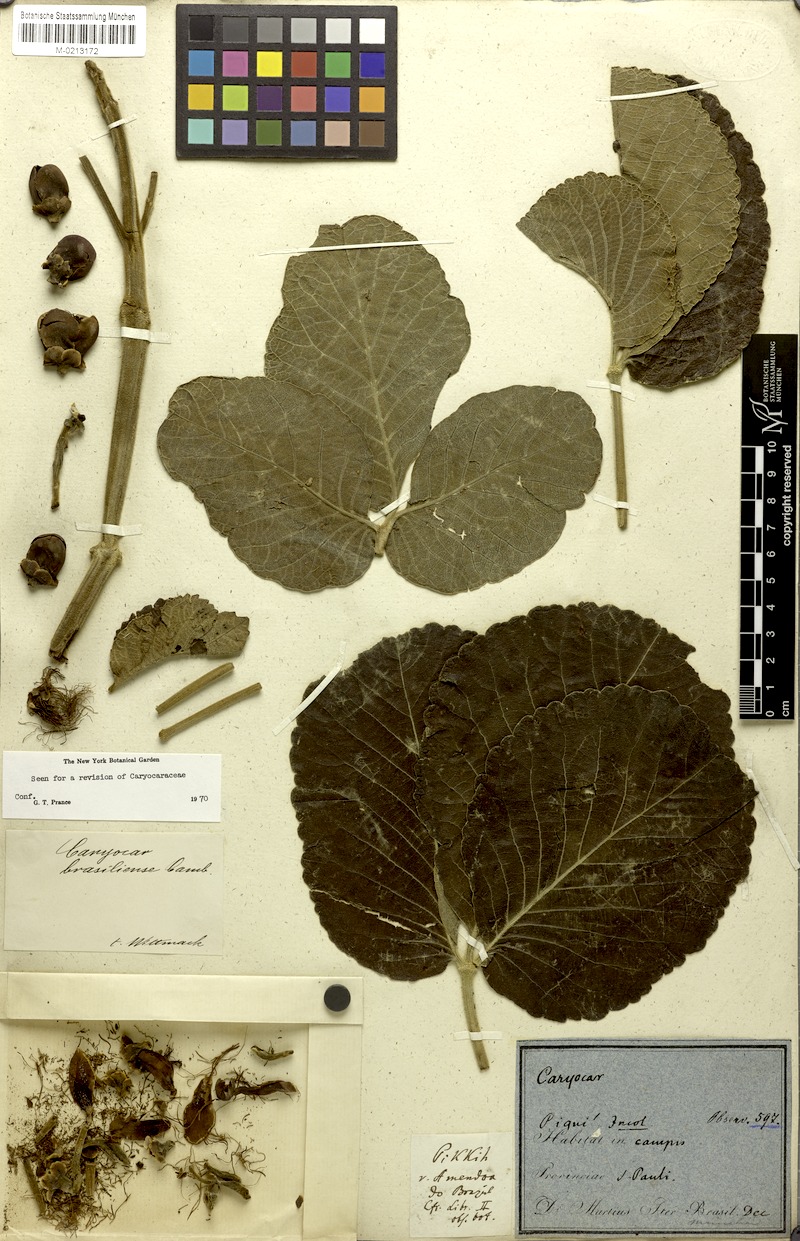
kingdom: Plantae
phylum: Tracheophyta
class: Magnoliopsida
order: Malpighiales
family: Caryocaraceae
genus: Caryocar
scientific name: Caryocar brasiliense
